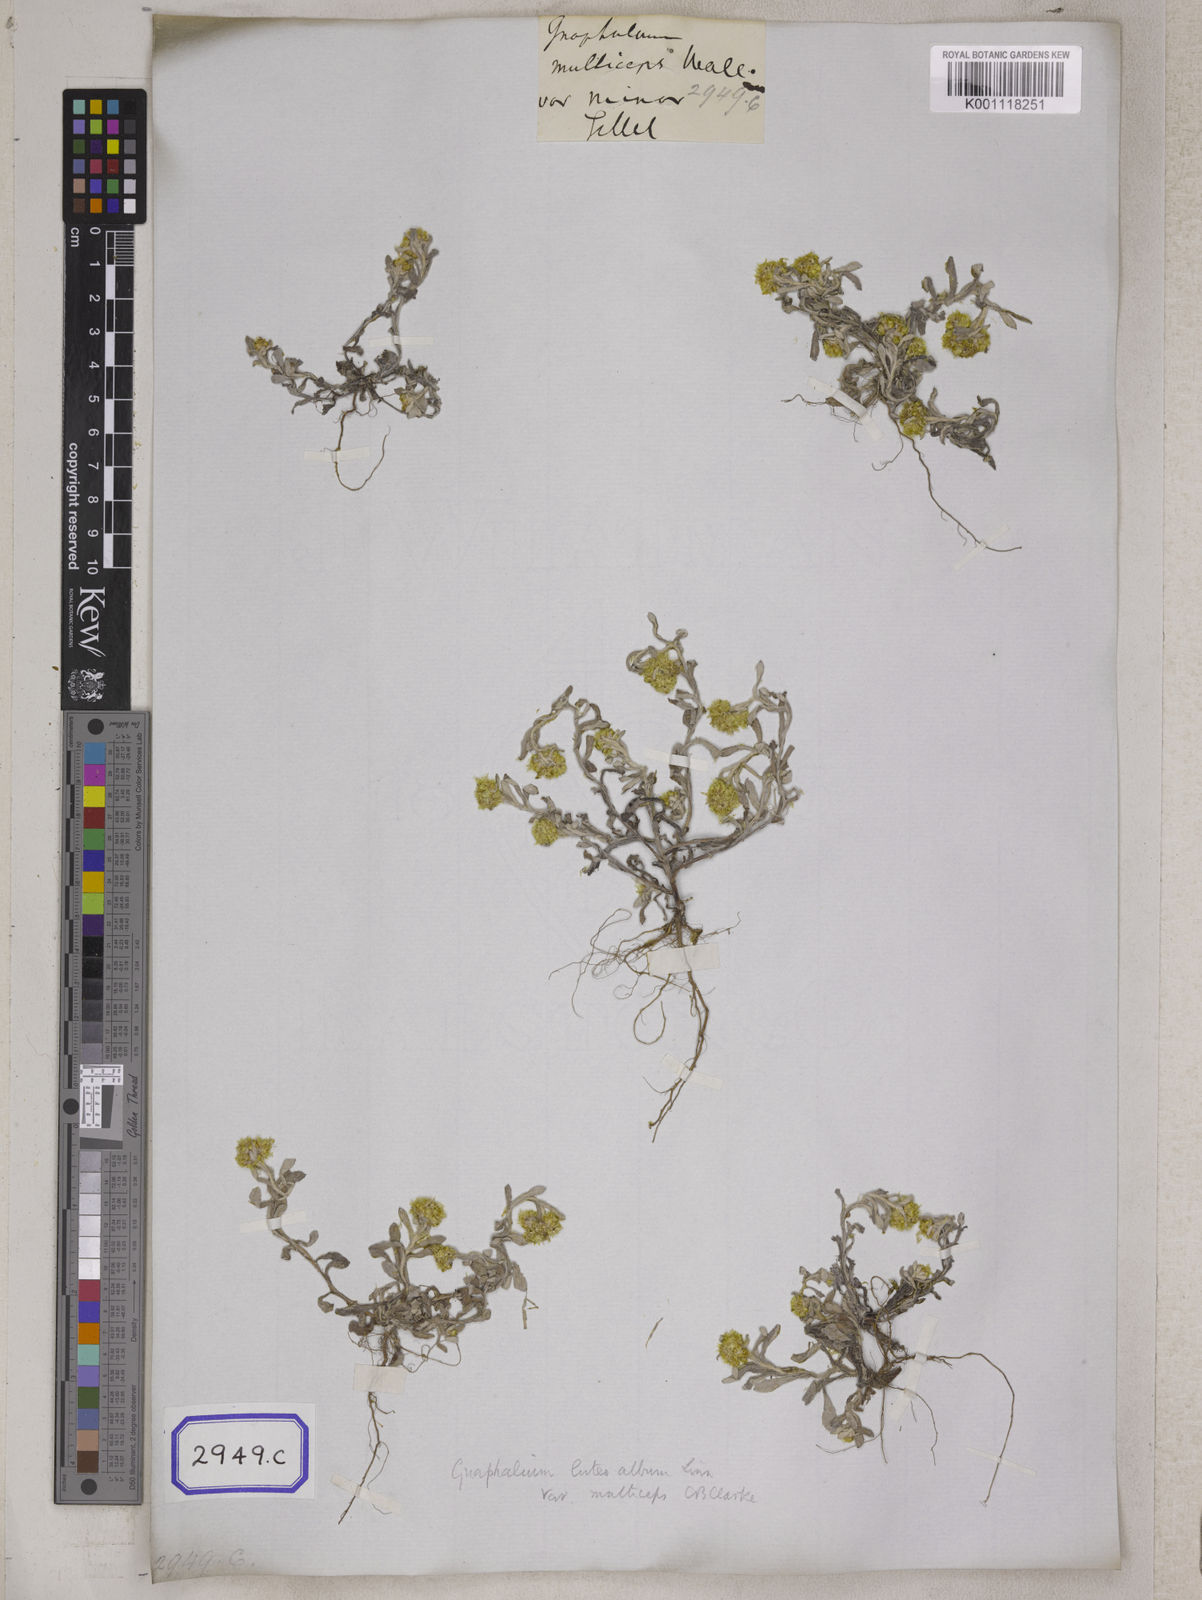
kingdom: Plantae
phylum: Tracheophyta
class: Magnoliopsida
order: Asterales
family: Asteraceae
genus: Pseudognaphalium
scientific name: Pseudognaphalium affine
